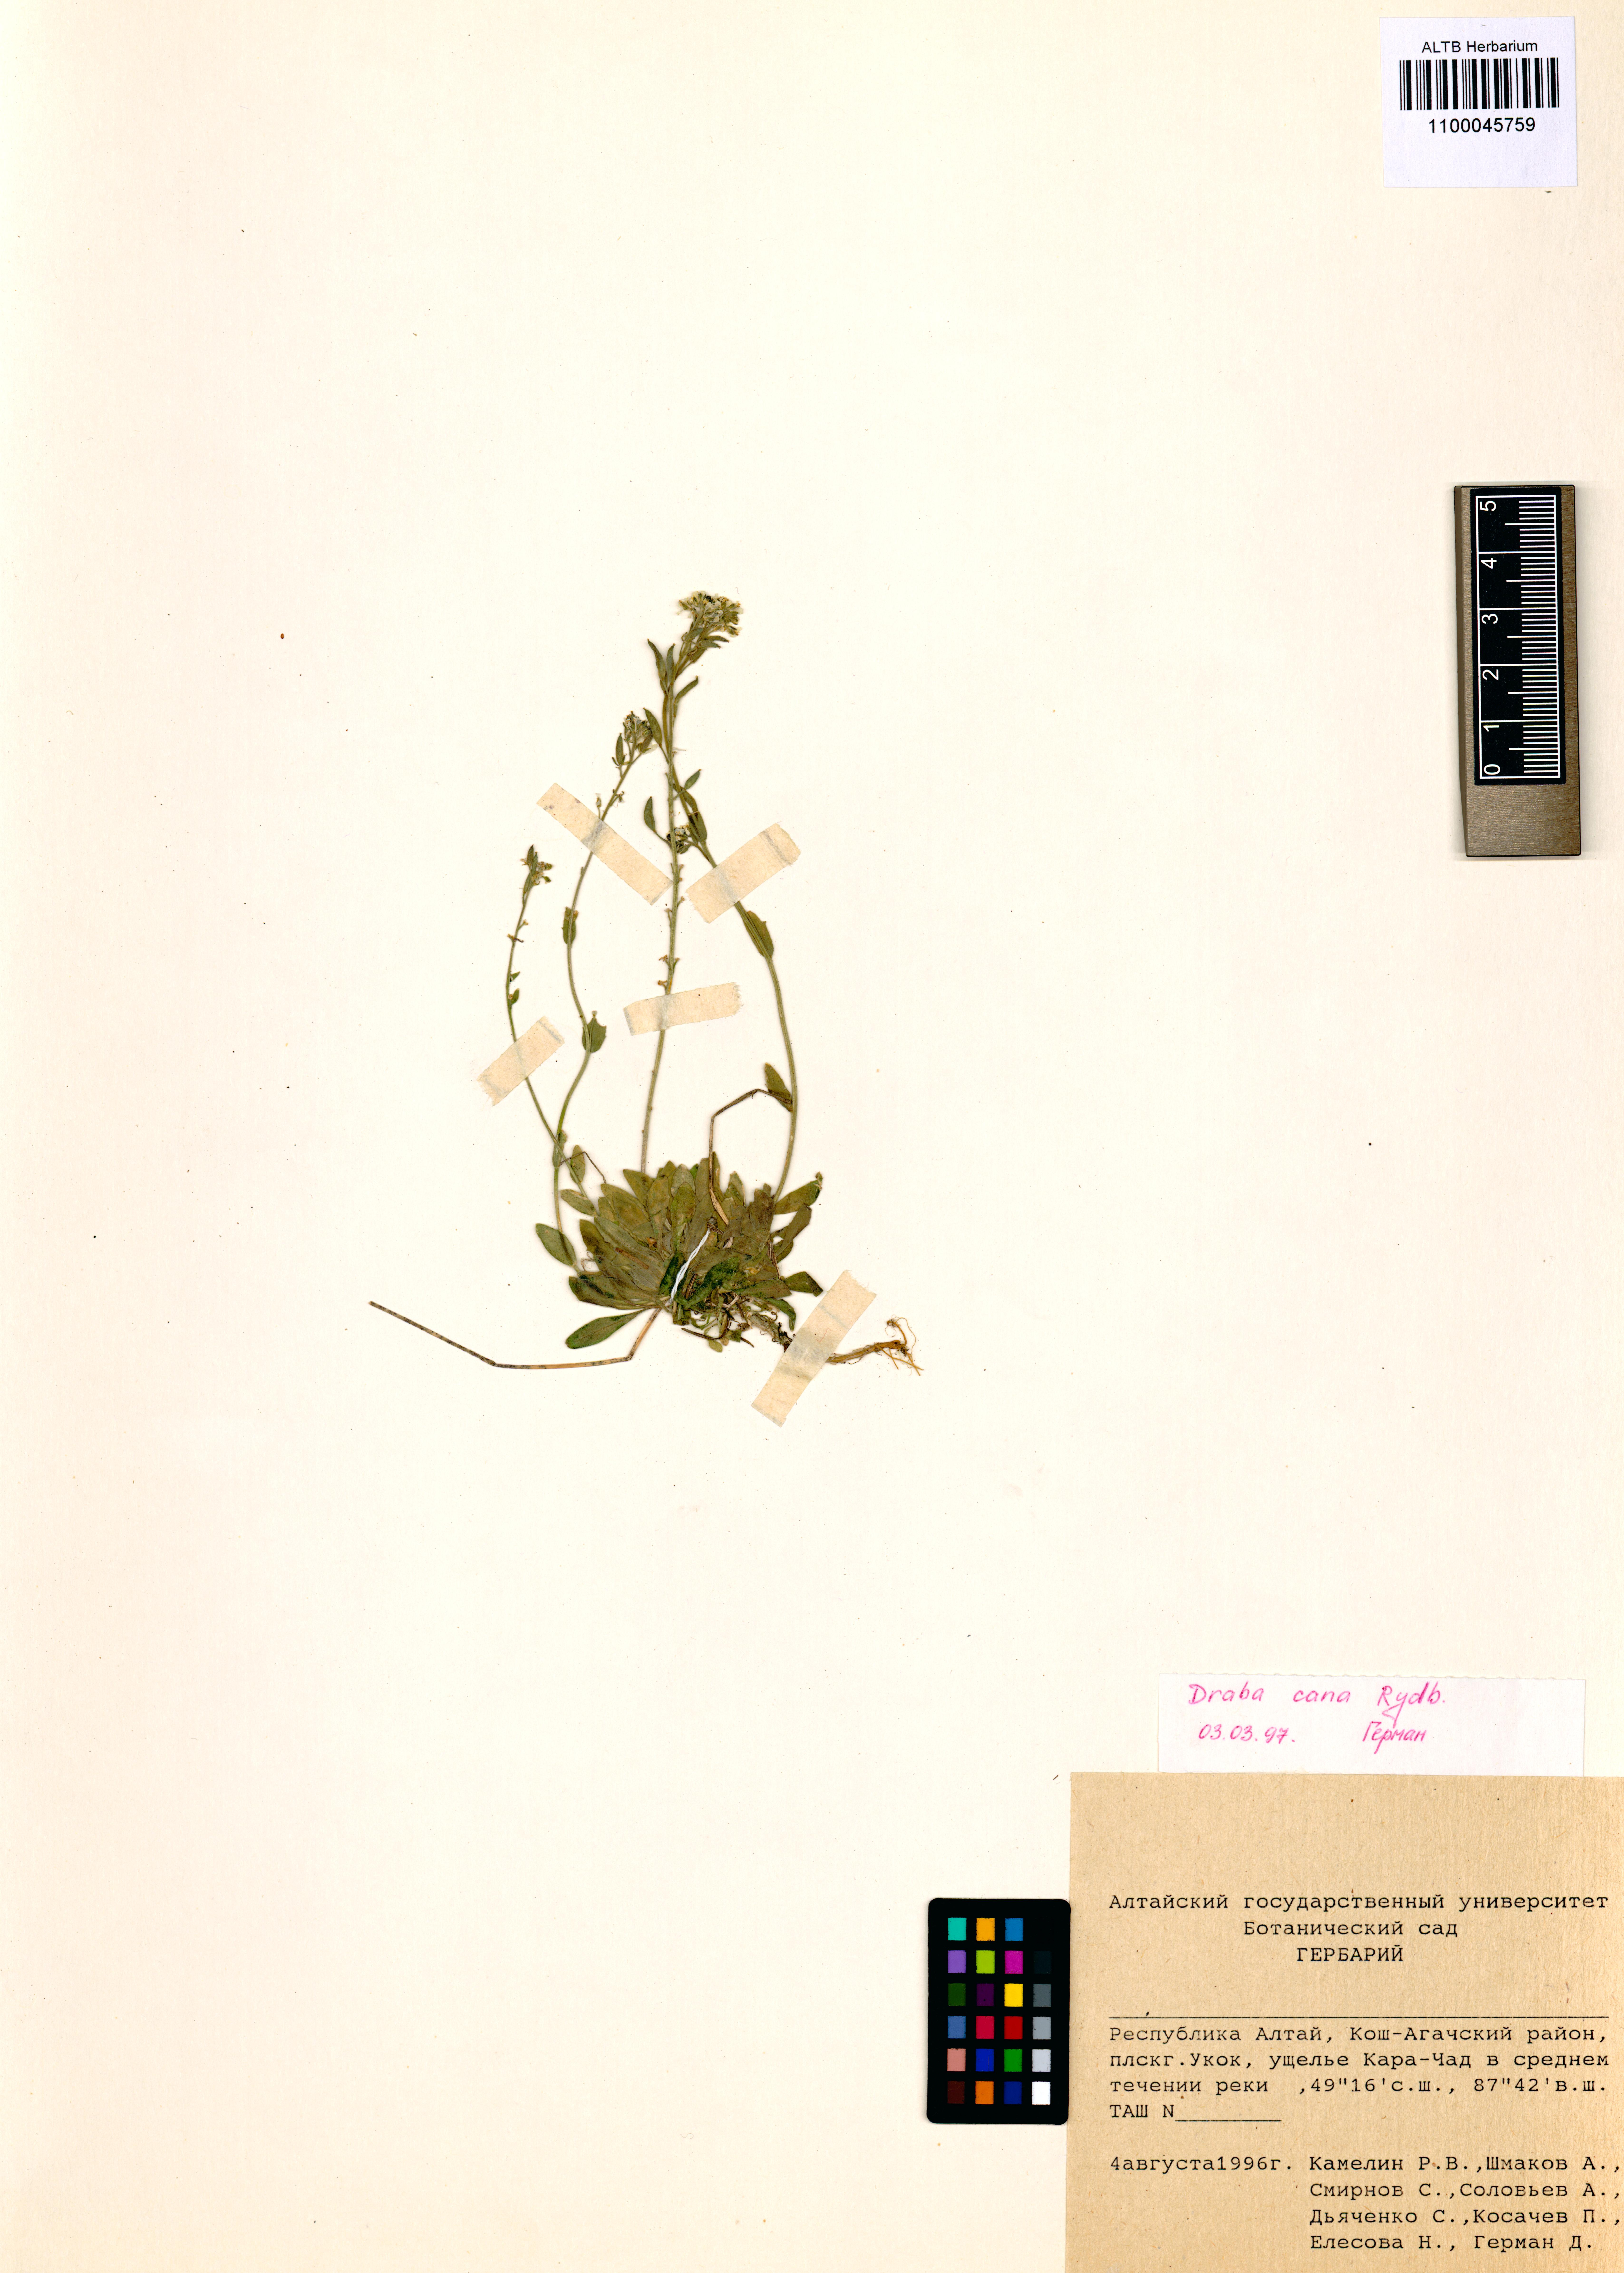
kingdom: Plantae
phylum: Tracheophyta
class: Magnoliopsida
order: Brassicales
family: Brassicaceae
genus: Draba
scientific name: Draba cana
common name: Hoary draba
